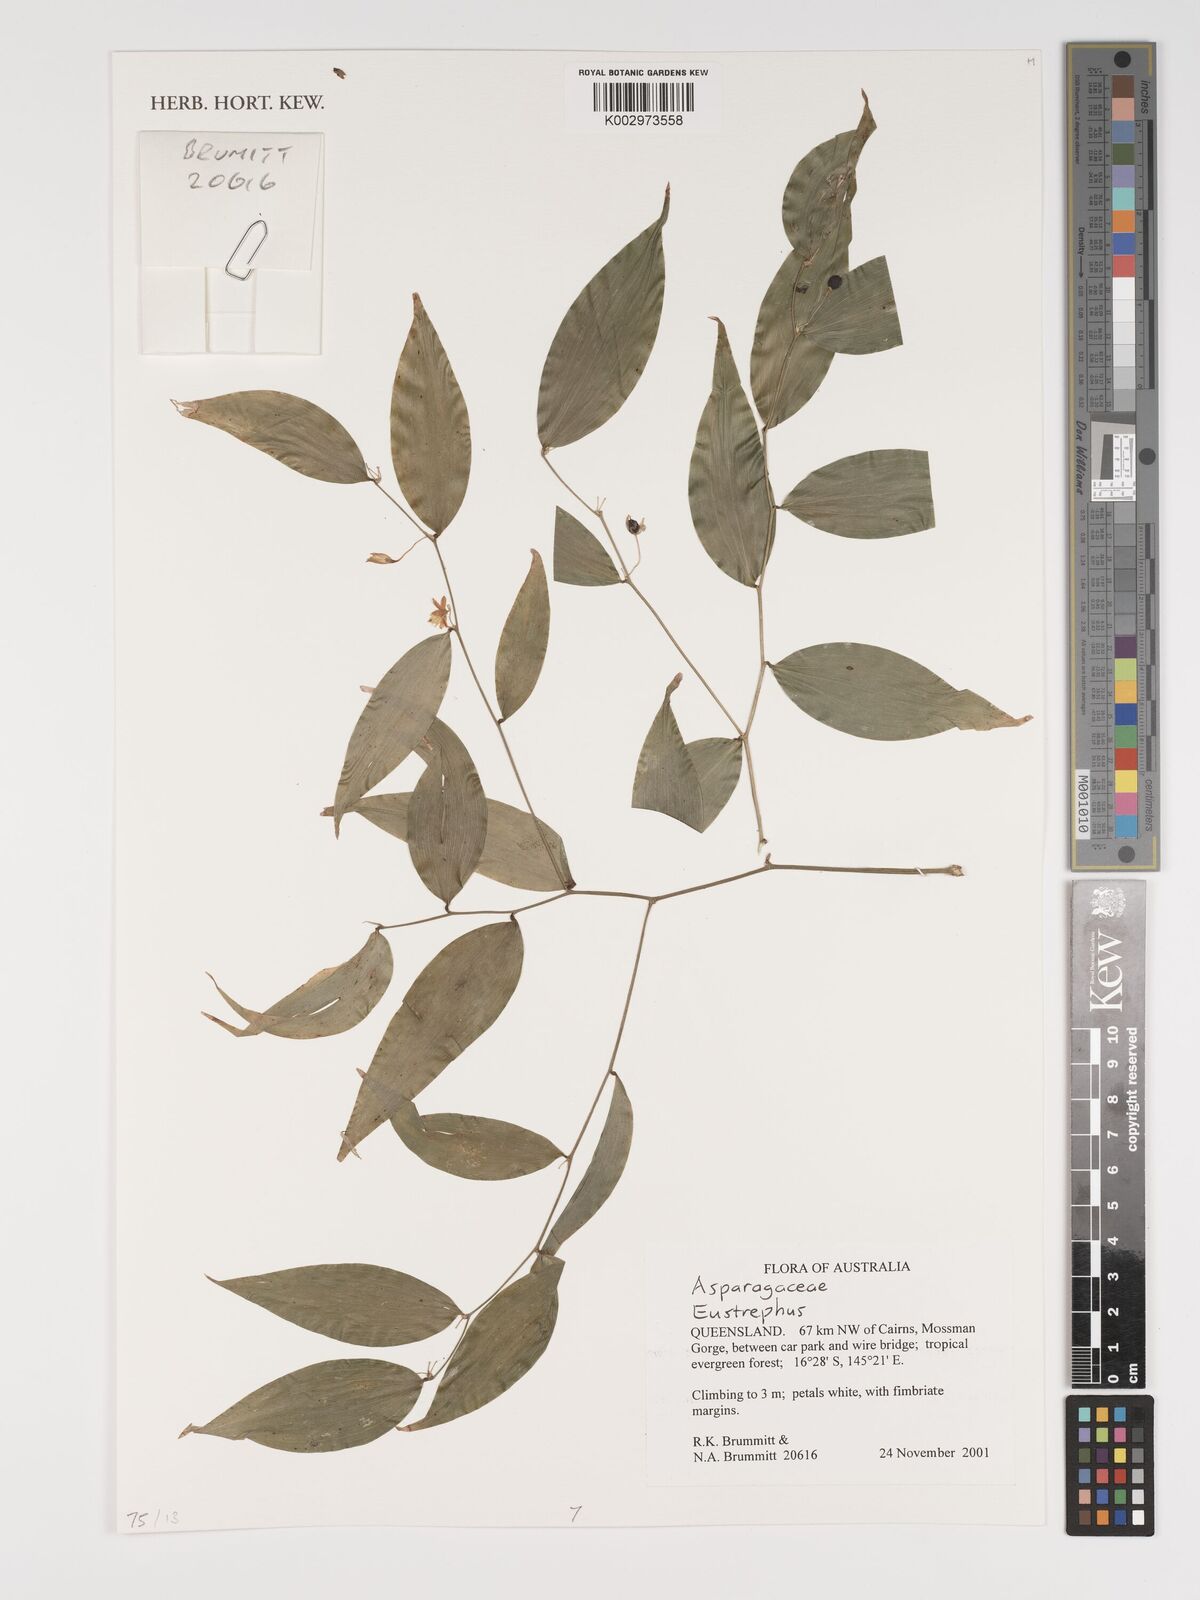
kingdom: Plantae
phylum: Tracheophyta
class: Liliopsida
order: Asparagales
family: Asparagaceae
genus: Eustrephus
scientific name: Eustrephus
